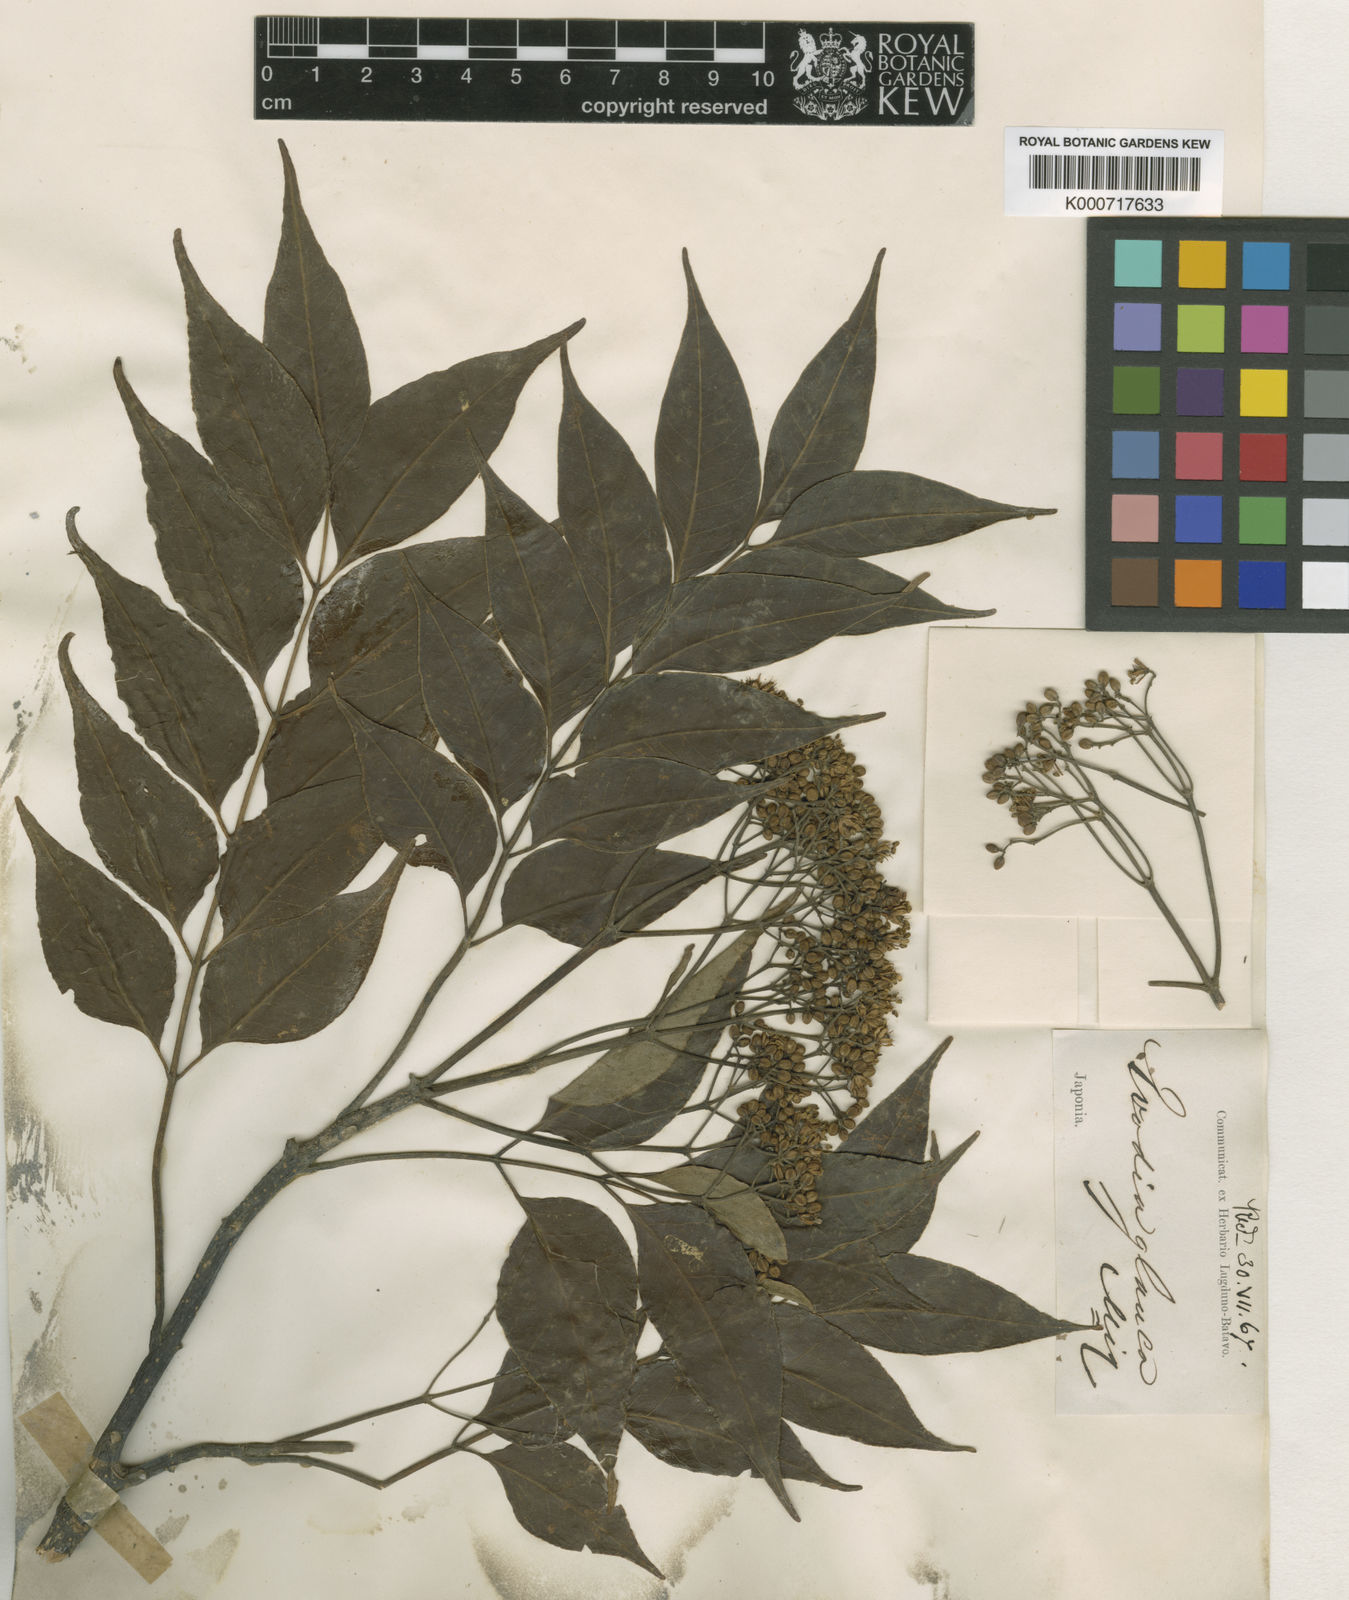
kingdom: Plantae
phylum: Tracheophyta
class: Magnoliopsida
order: Sapindales
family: Rutaceae
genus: Tetradium
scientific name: Tetradium glabrifolium
